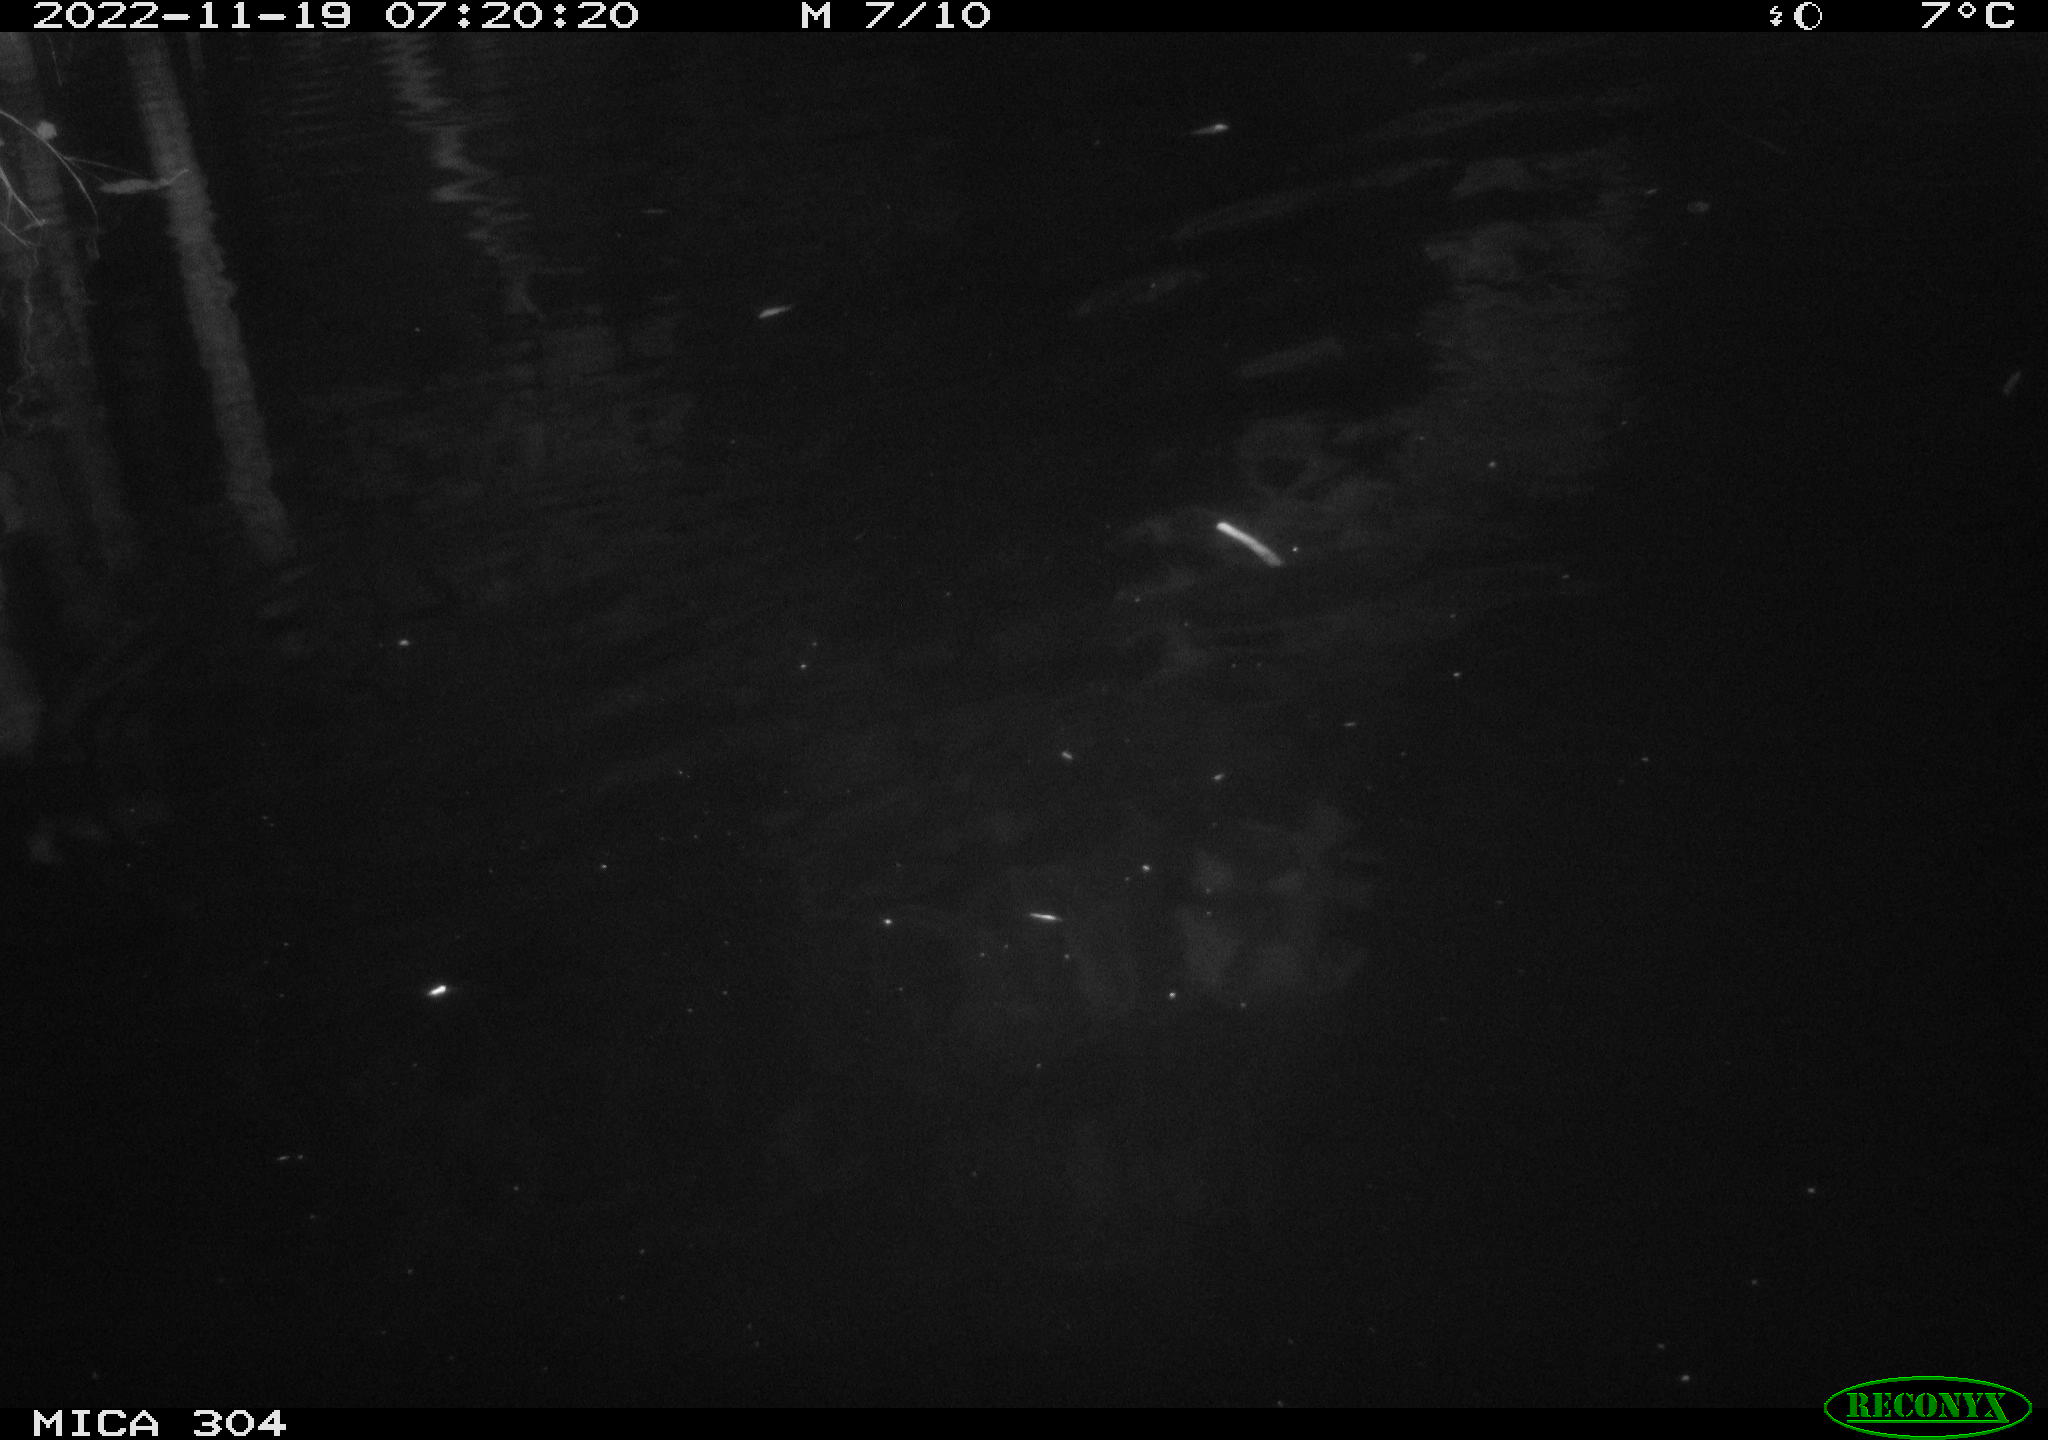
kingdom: Animalia
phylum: Chordata
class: Aves
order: Anseriformes
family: Anatidae
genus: Anas
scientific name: Anas
